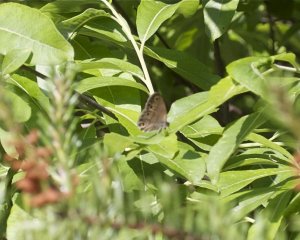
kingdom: Animalia
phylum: Arthropoda
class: Insecta
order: Lepidoptera
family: Nymphalidae
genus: Euptychia
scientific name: Euptychia cymela
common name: Little Wood Satyr
